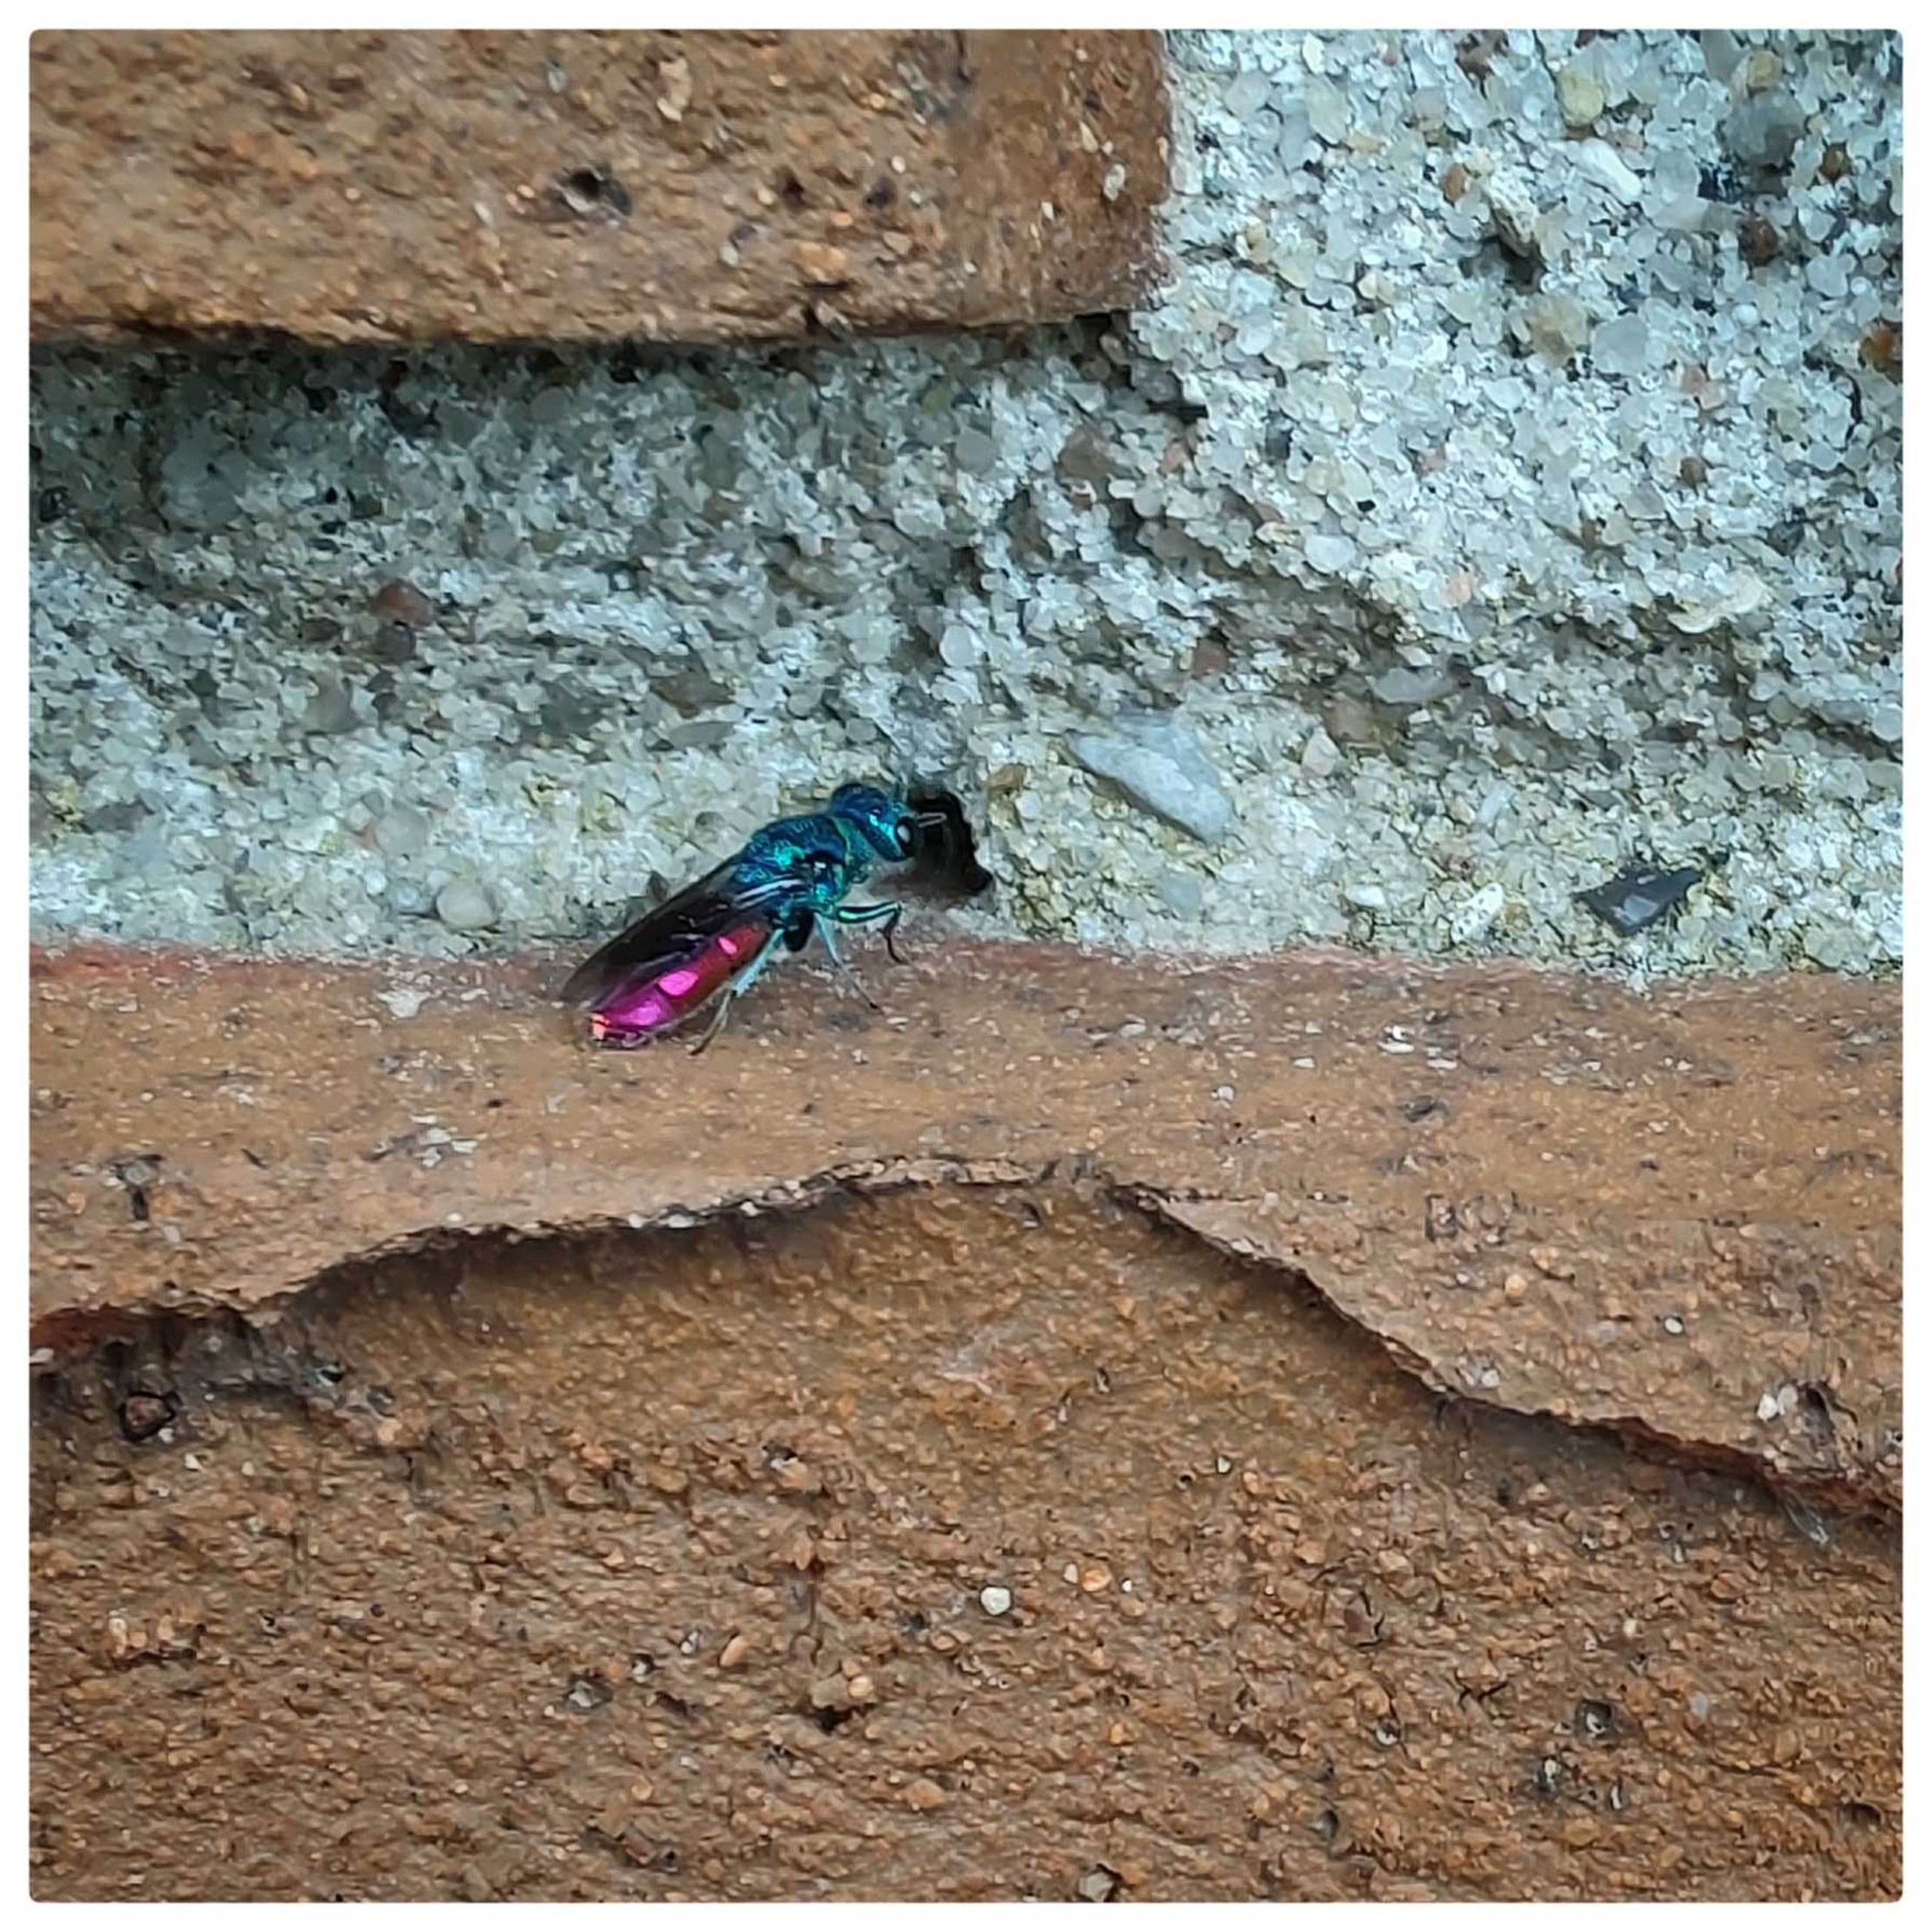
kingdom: Animalia
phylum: Arthropoda
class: Insecta
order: Hymenoptera
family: Chrysididae
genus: Chrysis
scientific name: Chrysis
